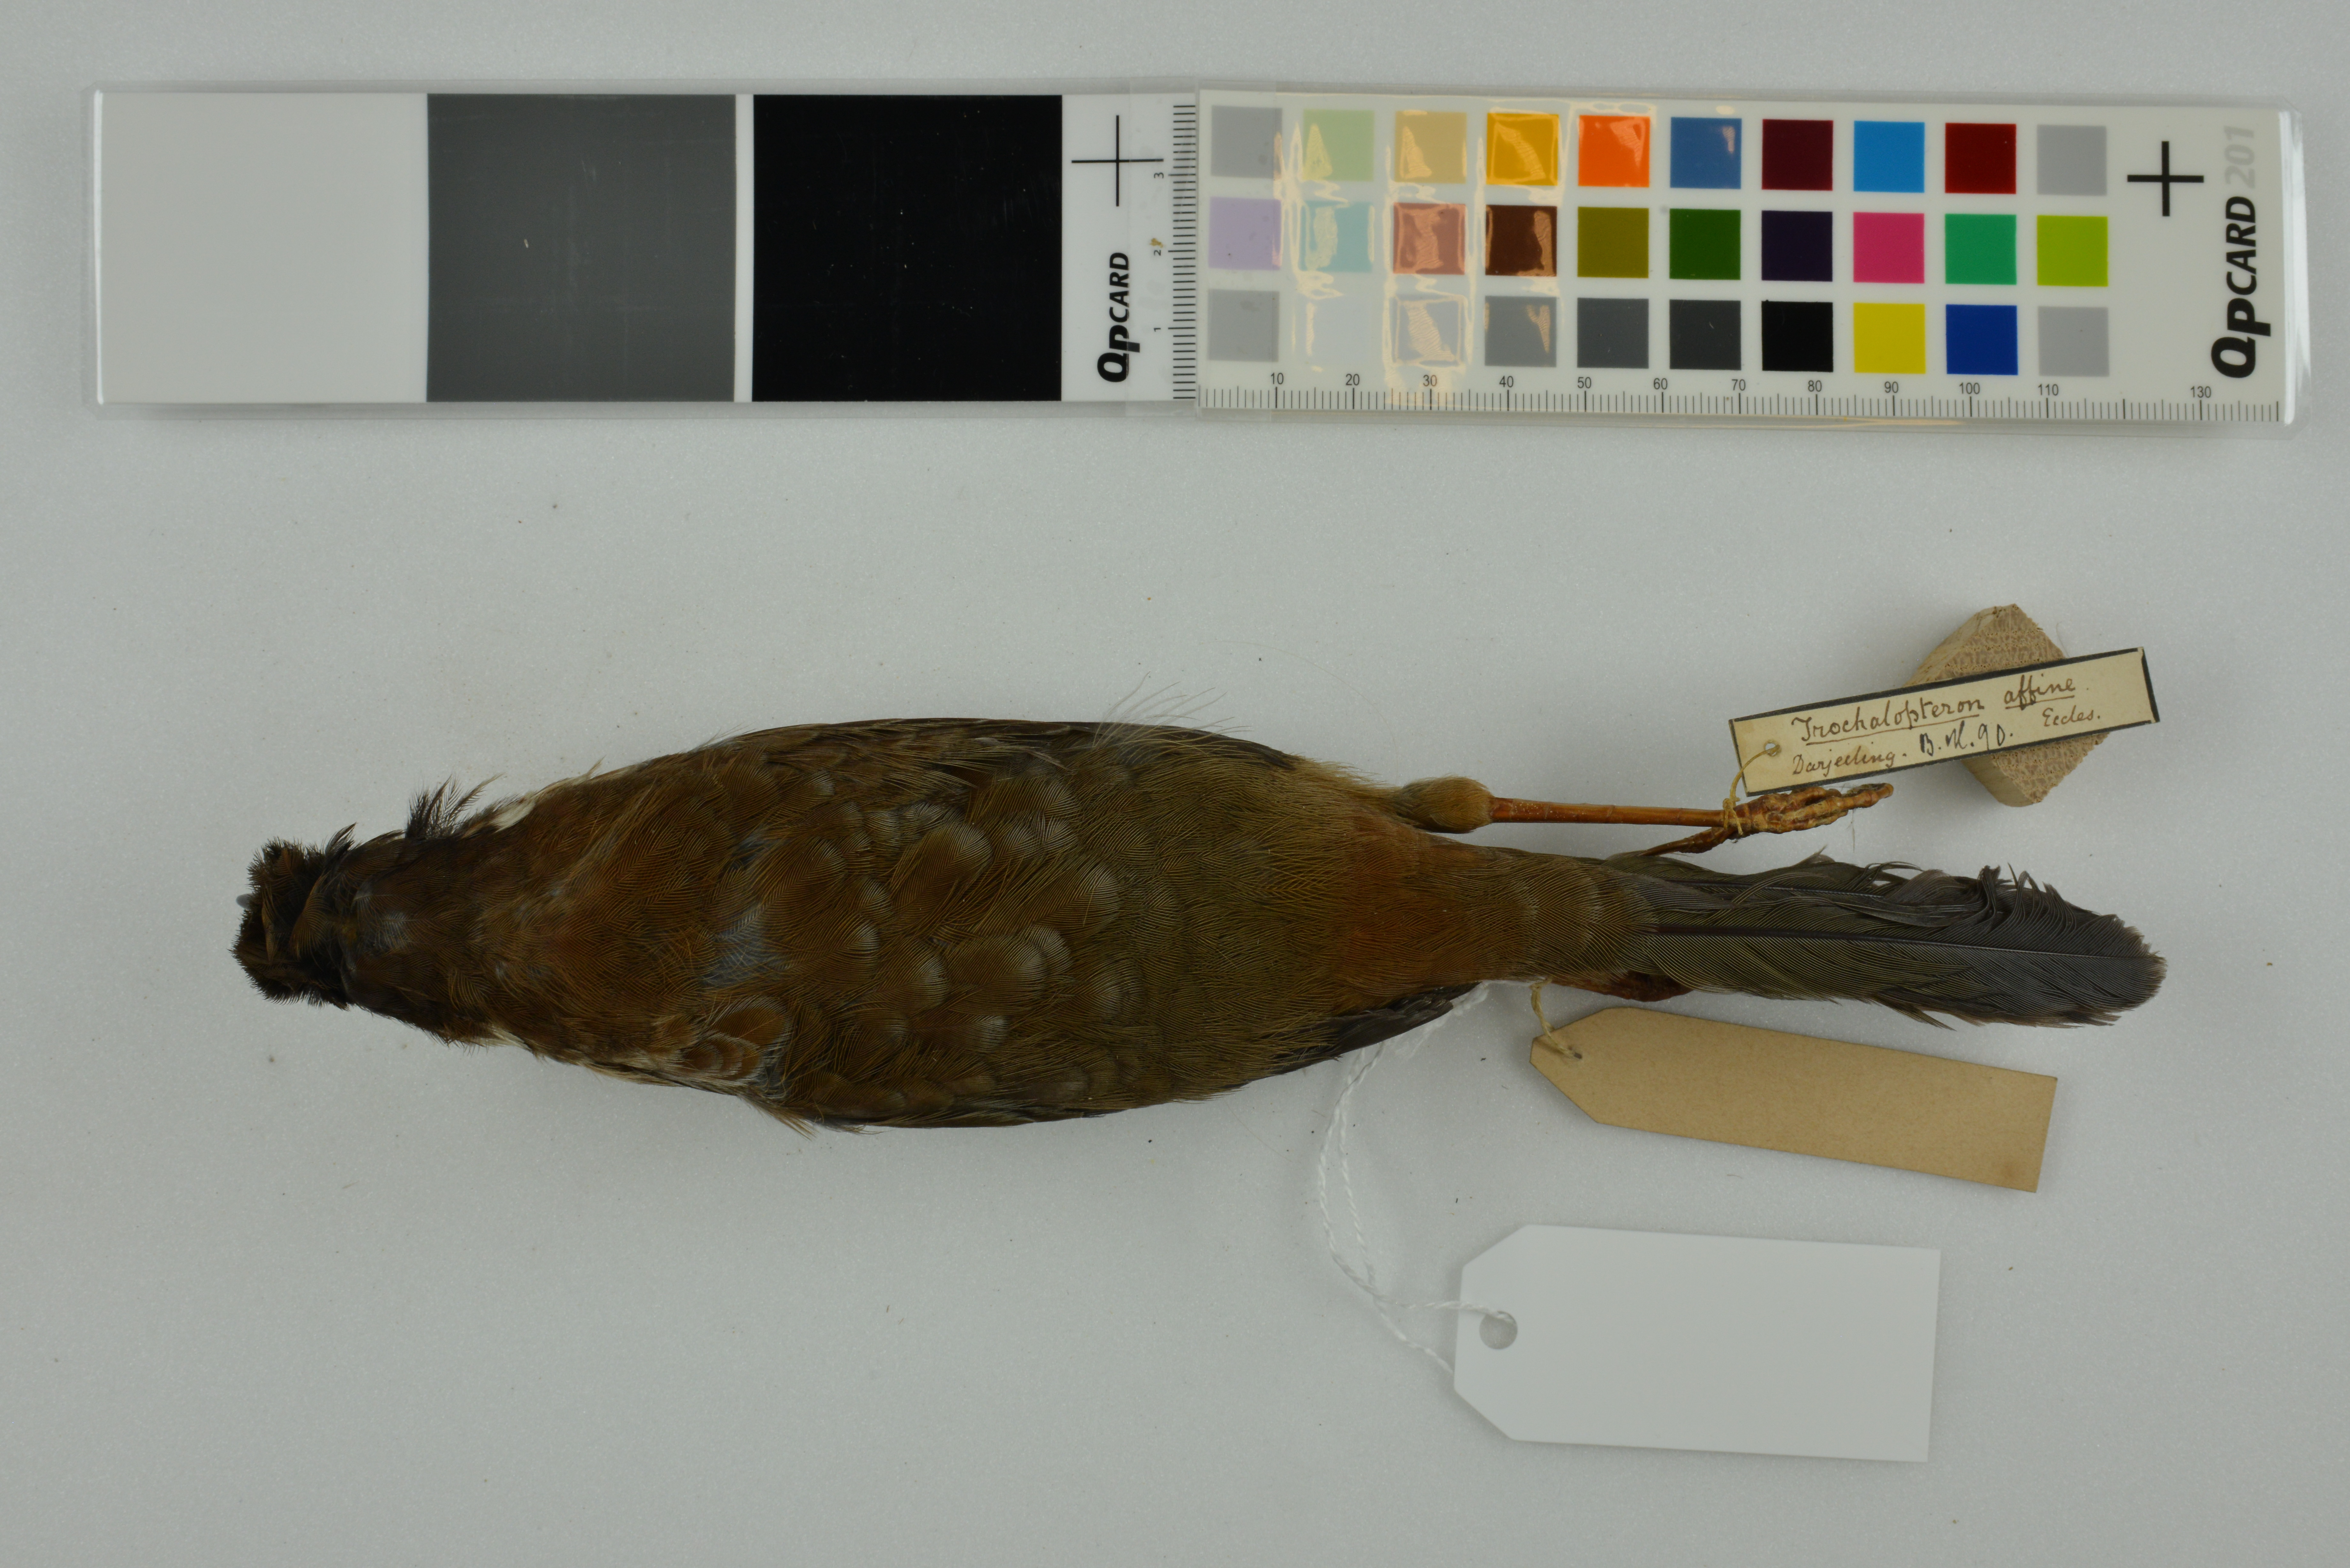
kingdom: Animalia
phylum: Chordata
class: Aves
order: Passeriformes
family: Leiothrichidae
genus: Trochalopteron
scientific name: Trochalopteron affine
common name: Black-faced laughingthrush
